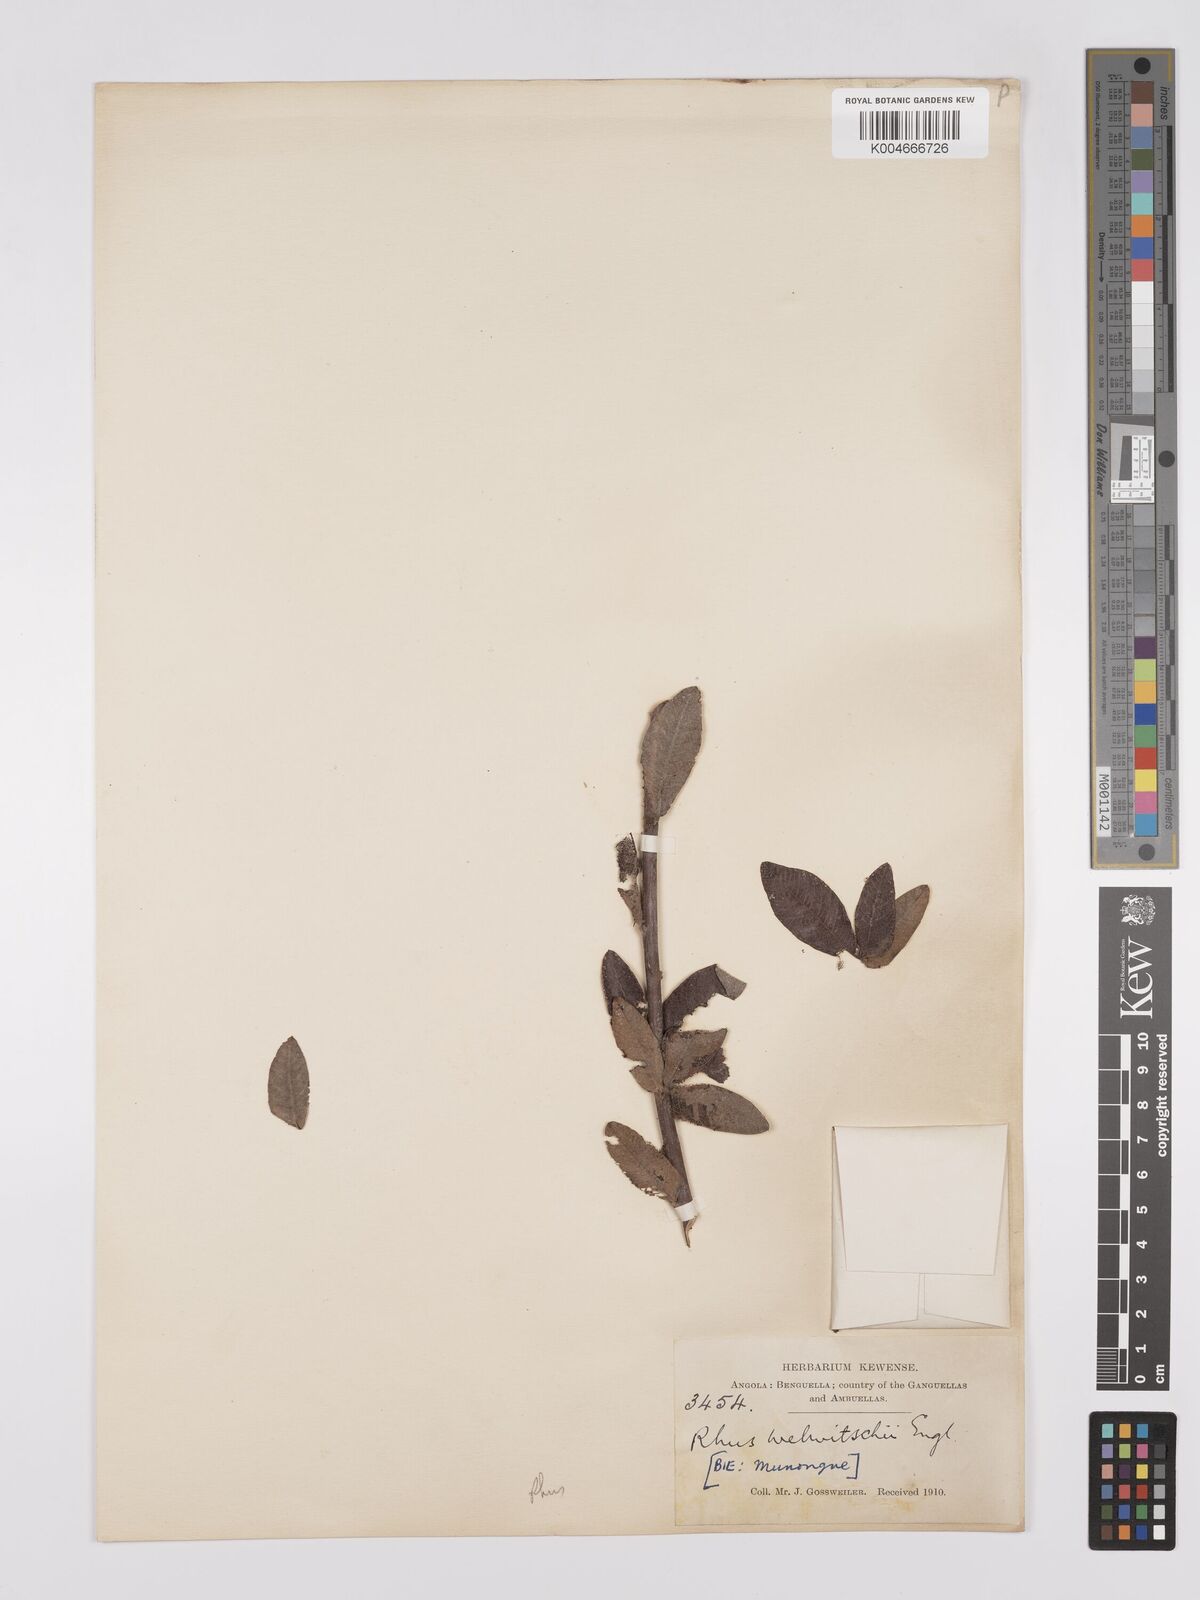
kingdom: Plantae
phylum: Tracheophyta
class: Magnoliopsida
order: Sapindales
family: Anacardiaceae
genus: Searsia
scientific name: Searsia kirkii
